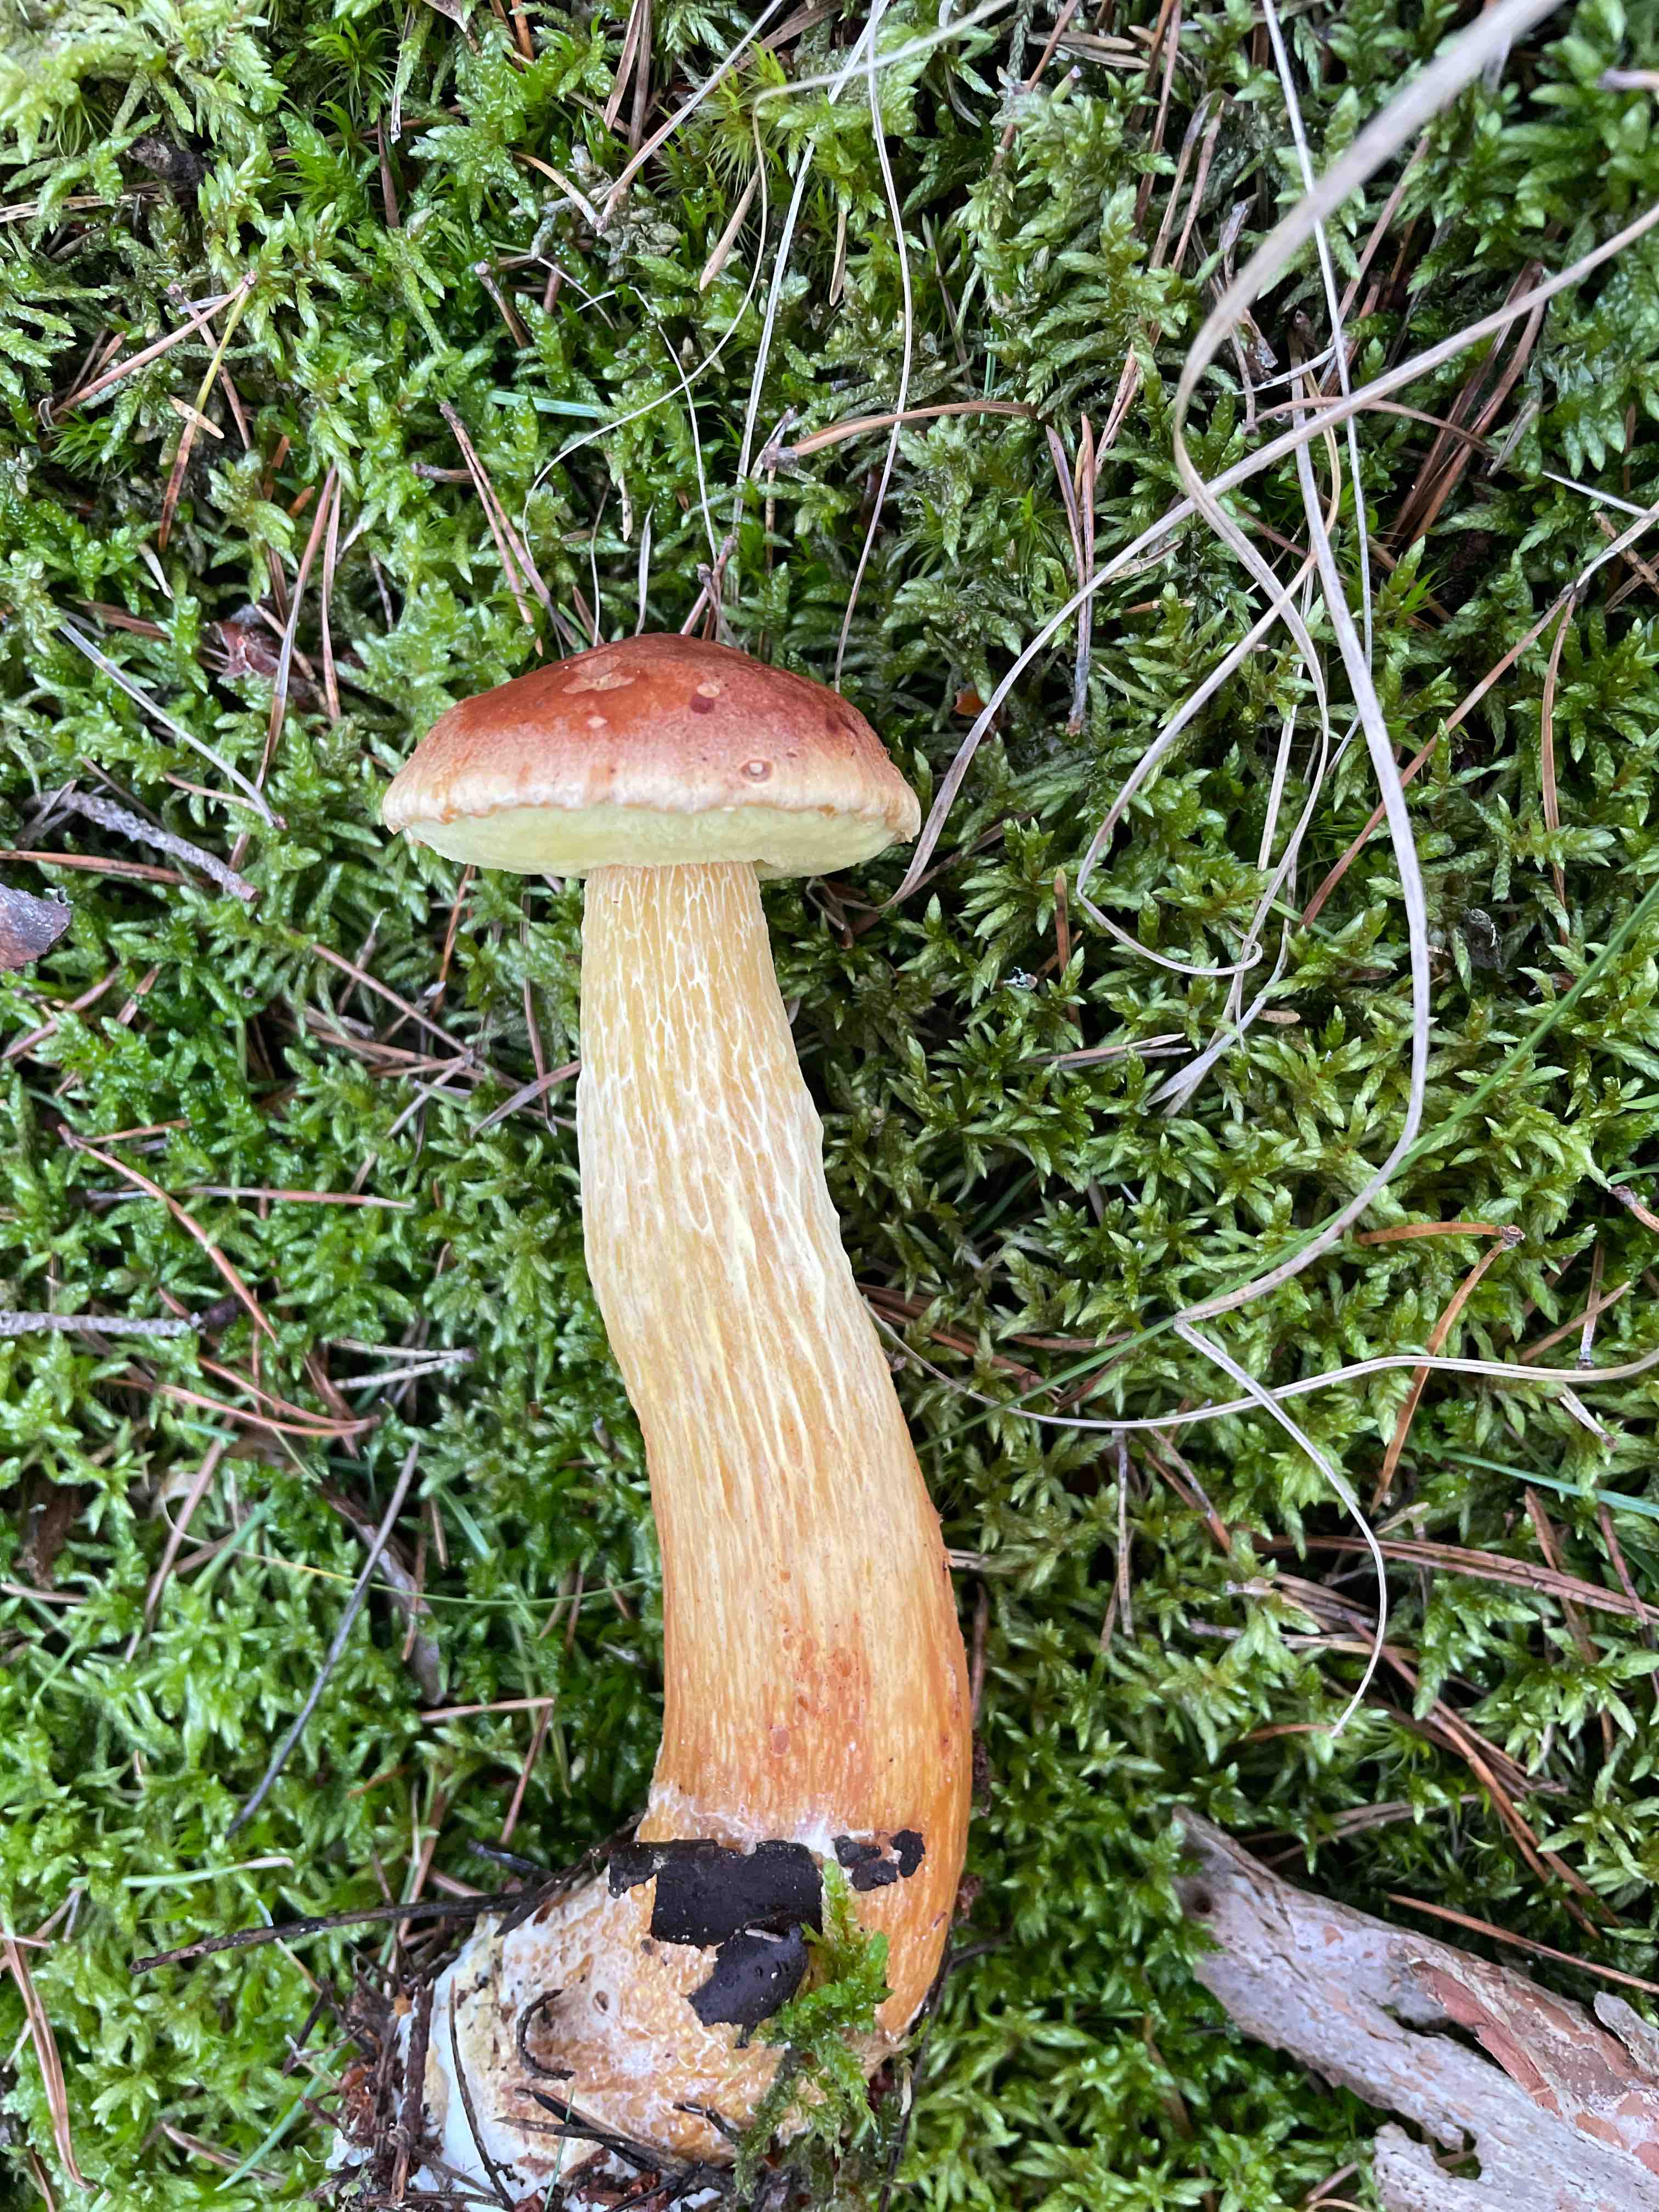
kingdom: Fungi
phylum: Basidiomycota
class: Agaricomycetes
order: Boletales
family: Boletaceae
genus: Aureoboletus
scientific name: Aureoboletus projectellus
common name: ribbestokket rørhat
